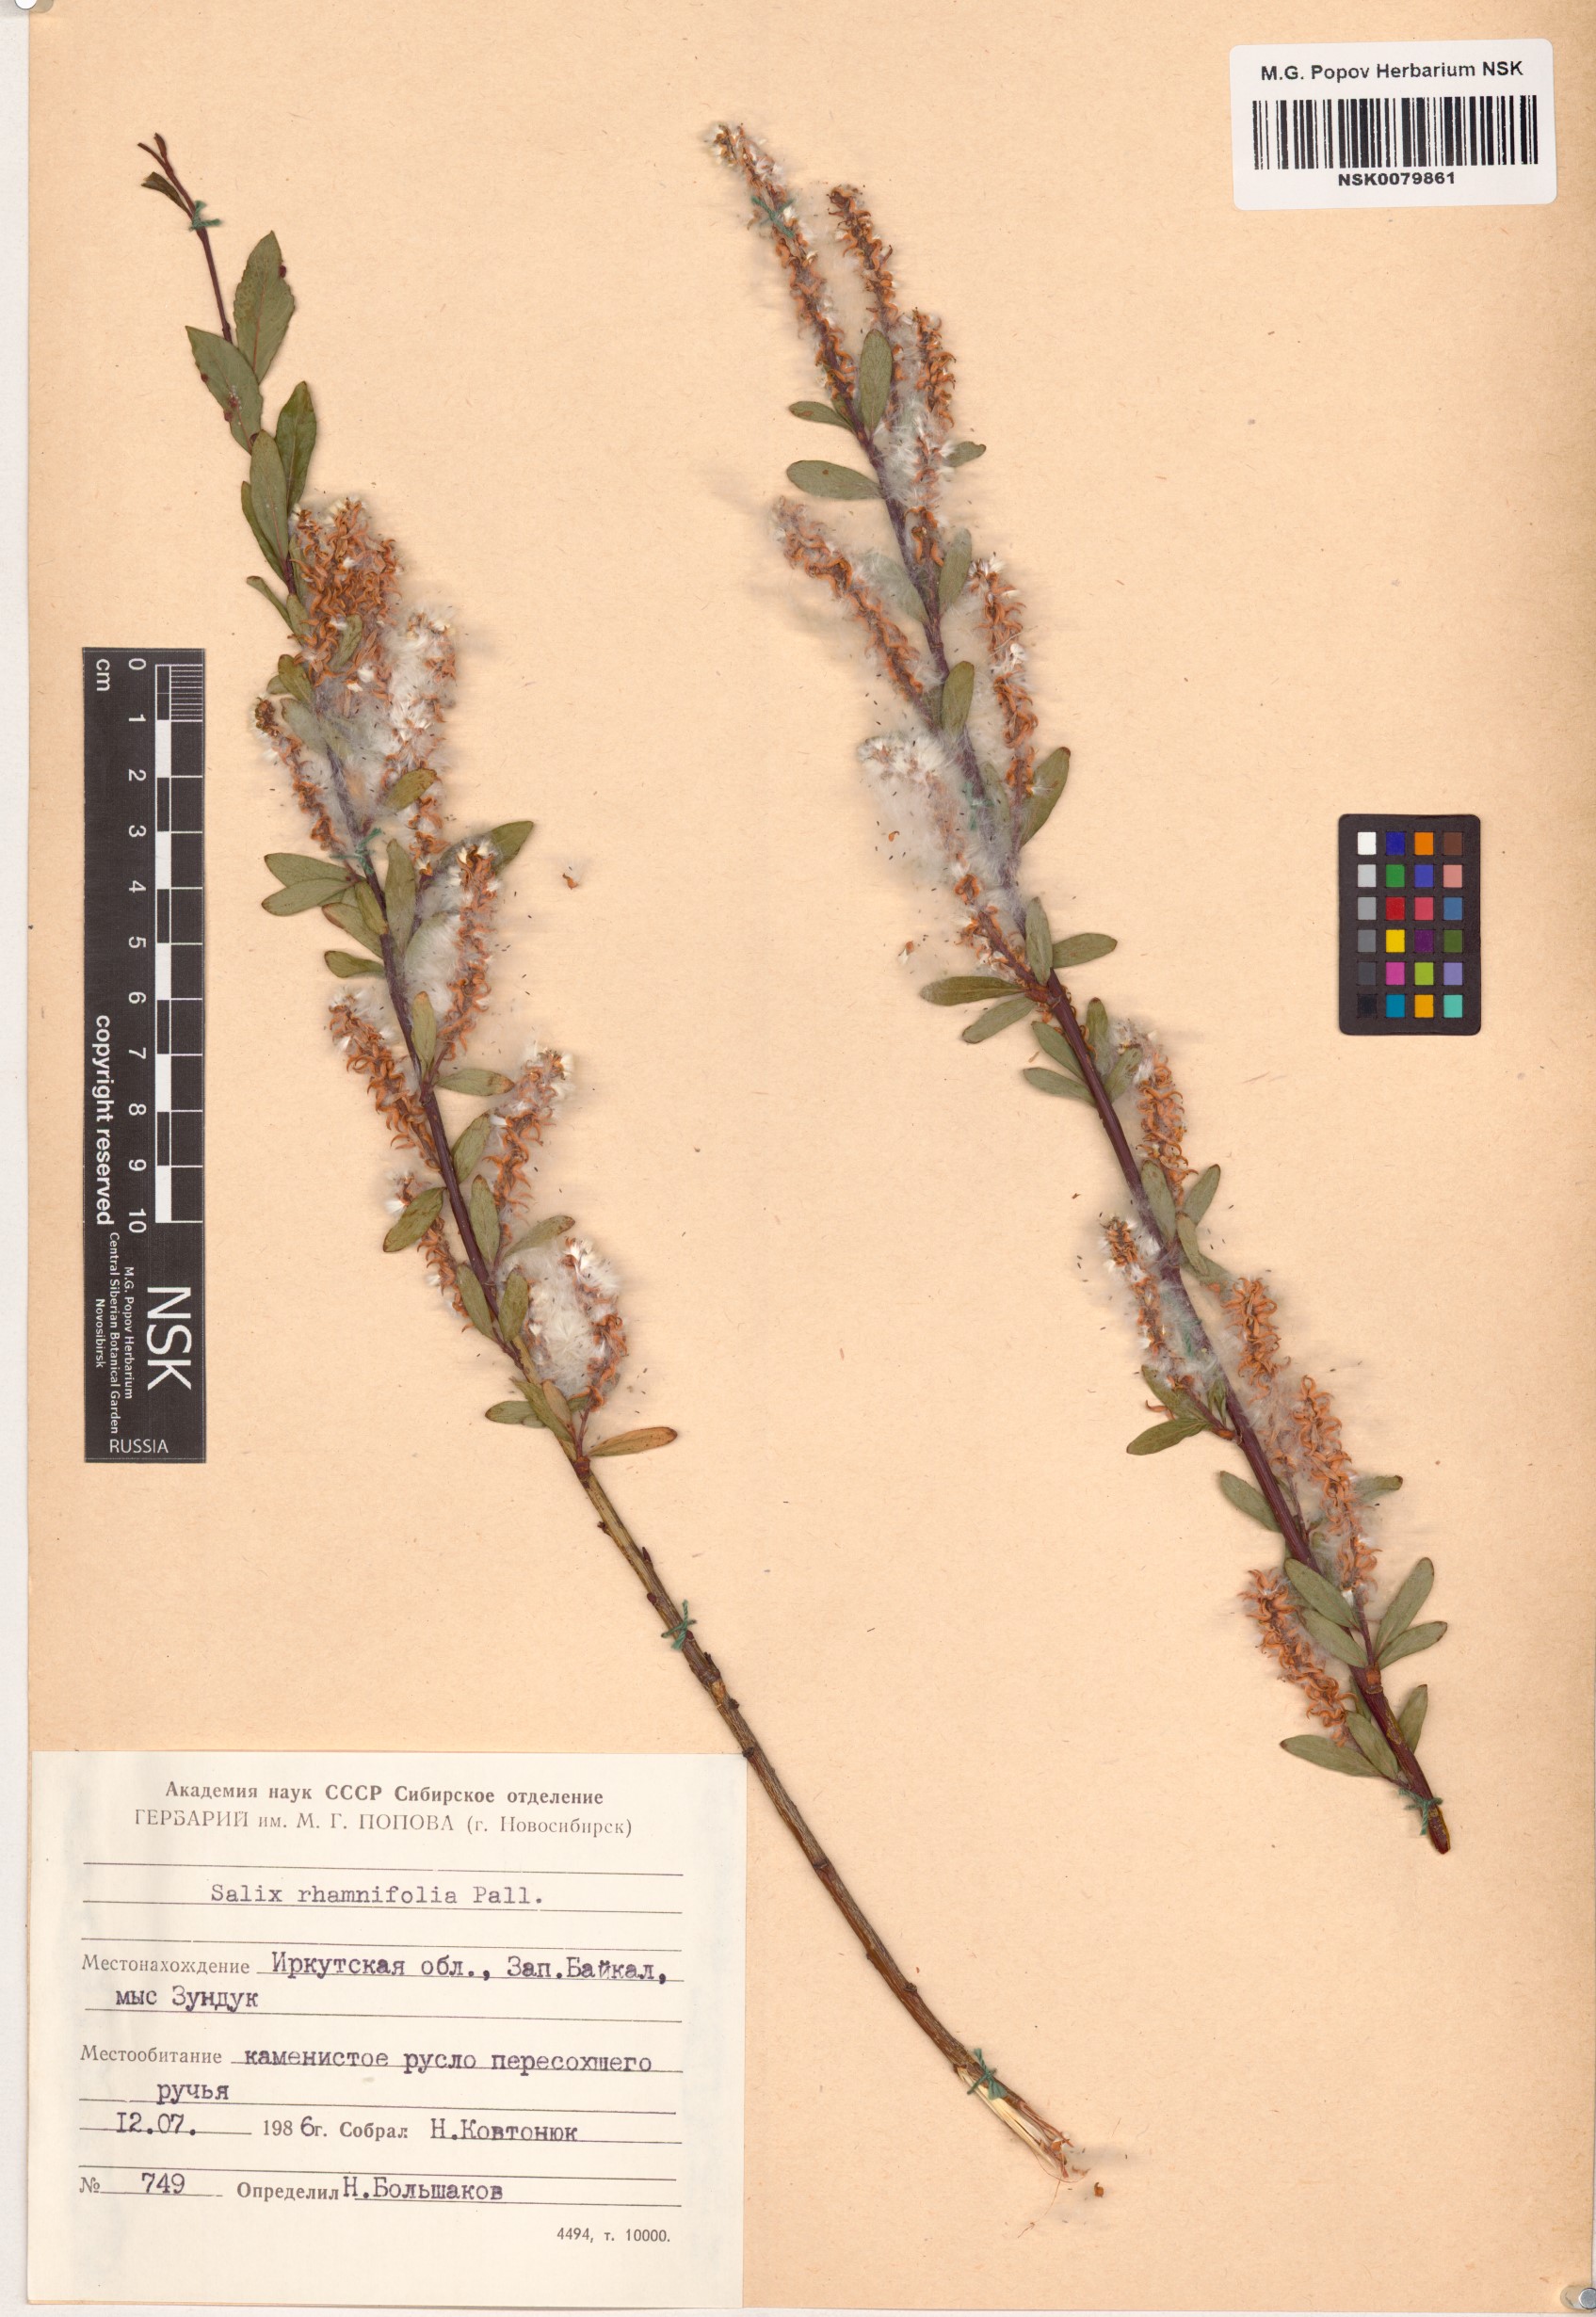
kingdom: Plantae
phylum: Tracheophyta
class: Magnoliopsida
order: Malpighiales
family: Salicaceae
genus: Salix
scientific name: Salix rhamnifolia
